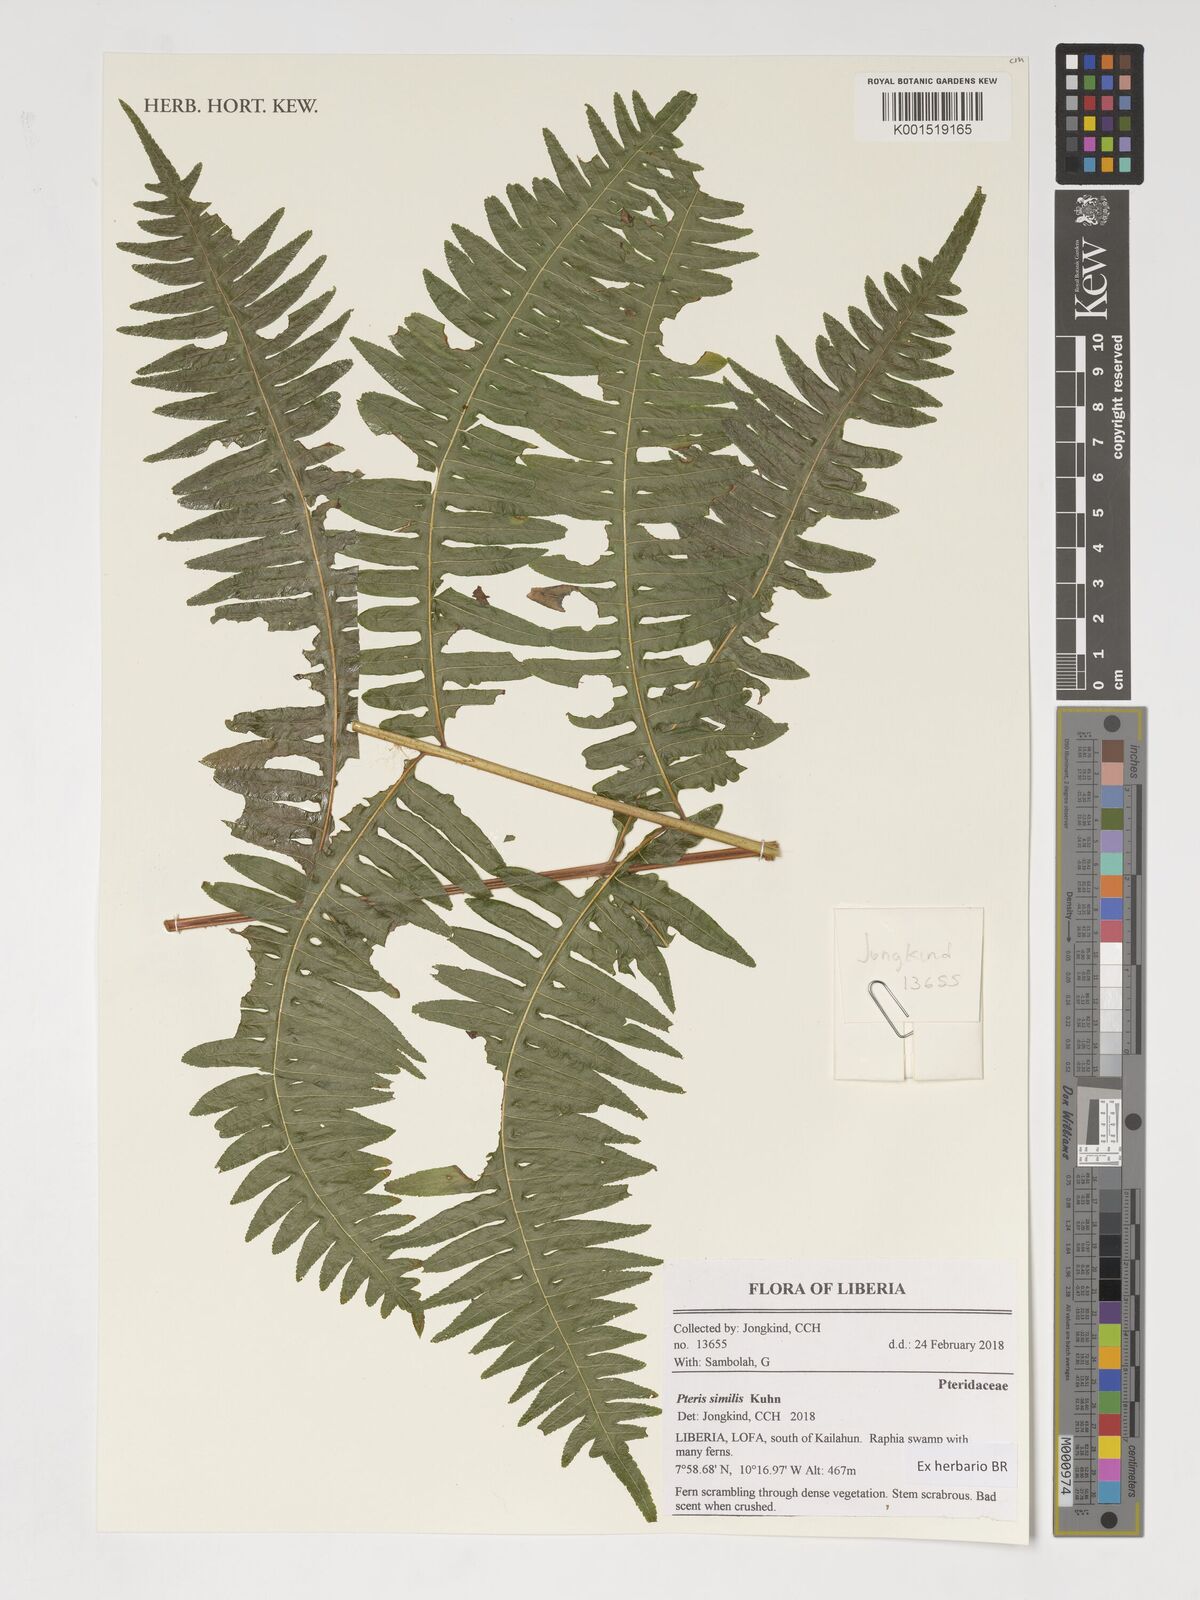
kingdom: Plantae
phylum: Tracheophyta
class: Polypodiopsida
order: Polypodiales
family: Pteridaceae
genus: Pteris
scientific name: Pteris similis
